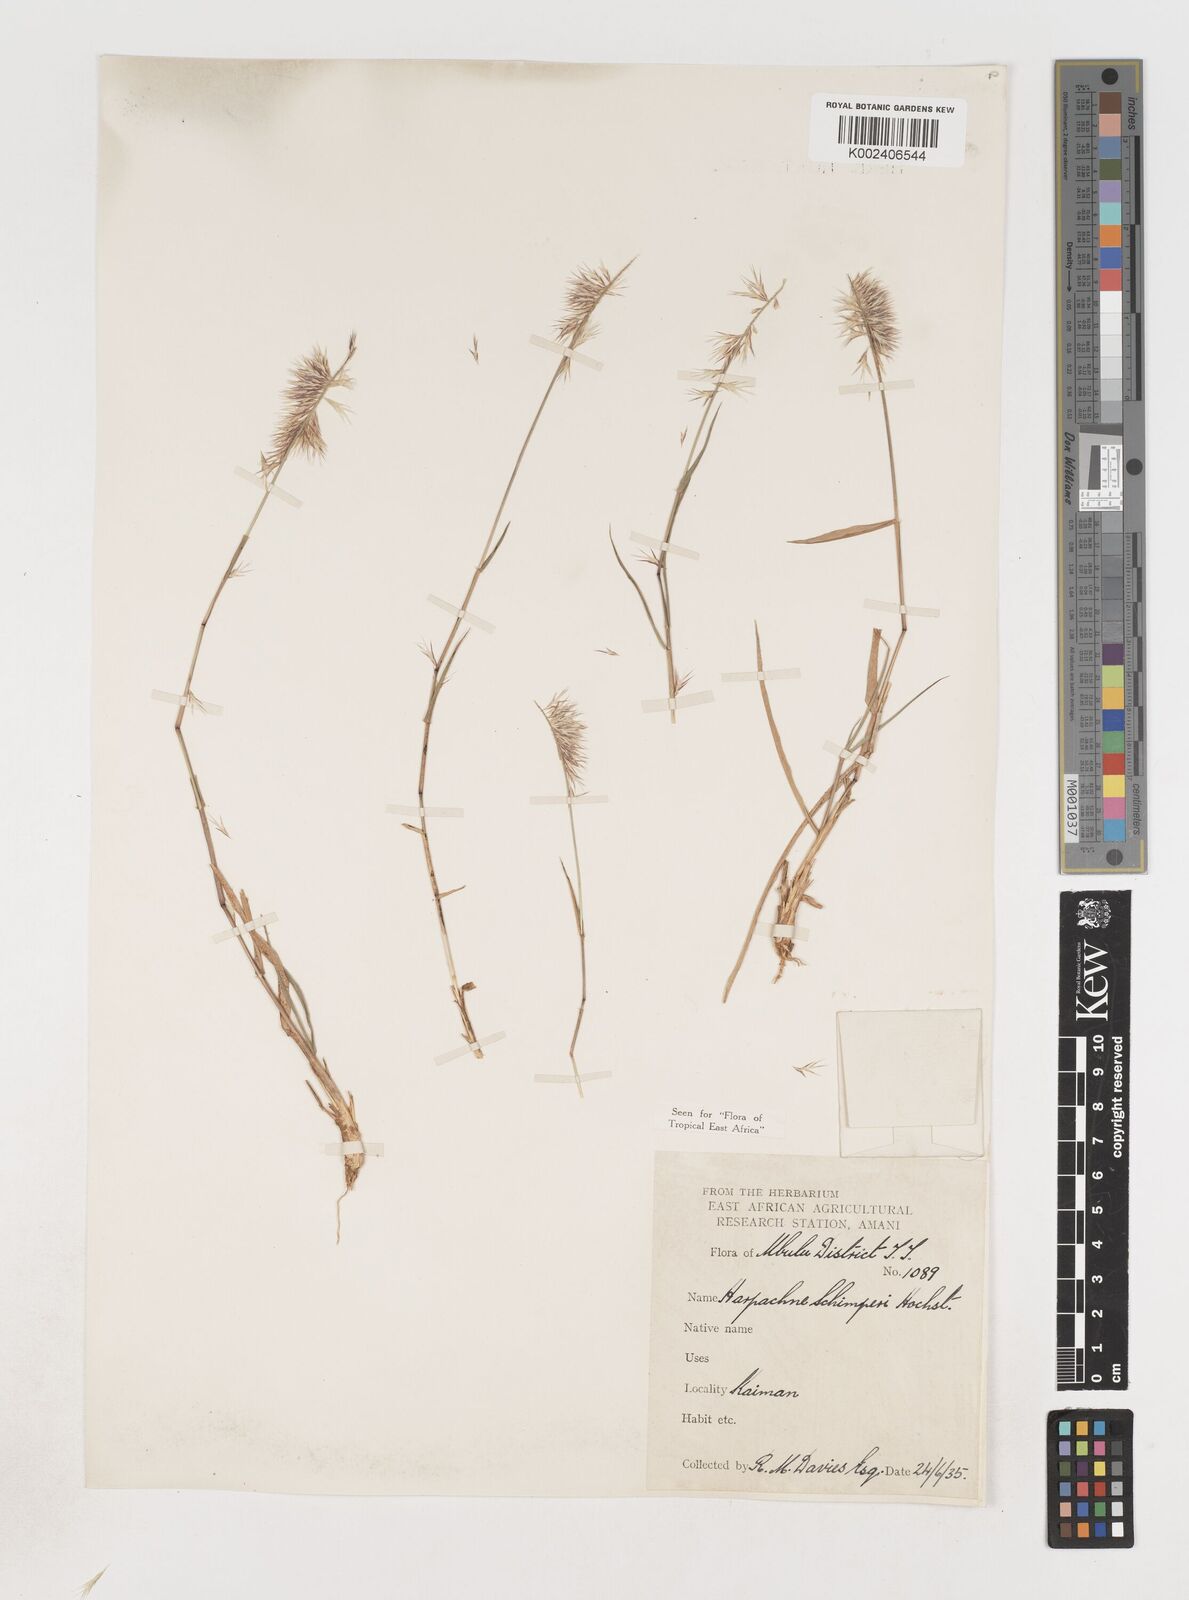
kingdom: Plantae
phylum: Tracheophyta
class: Liliopsida
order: Poales
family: Poaceae
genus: Harpachne
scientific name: Harpachne schimperi
